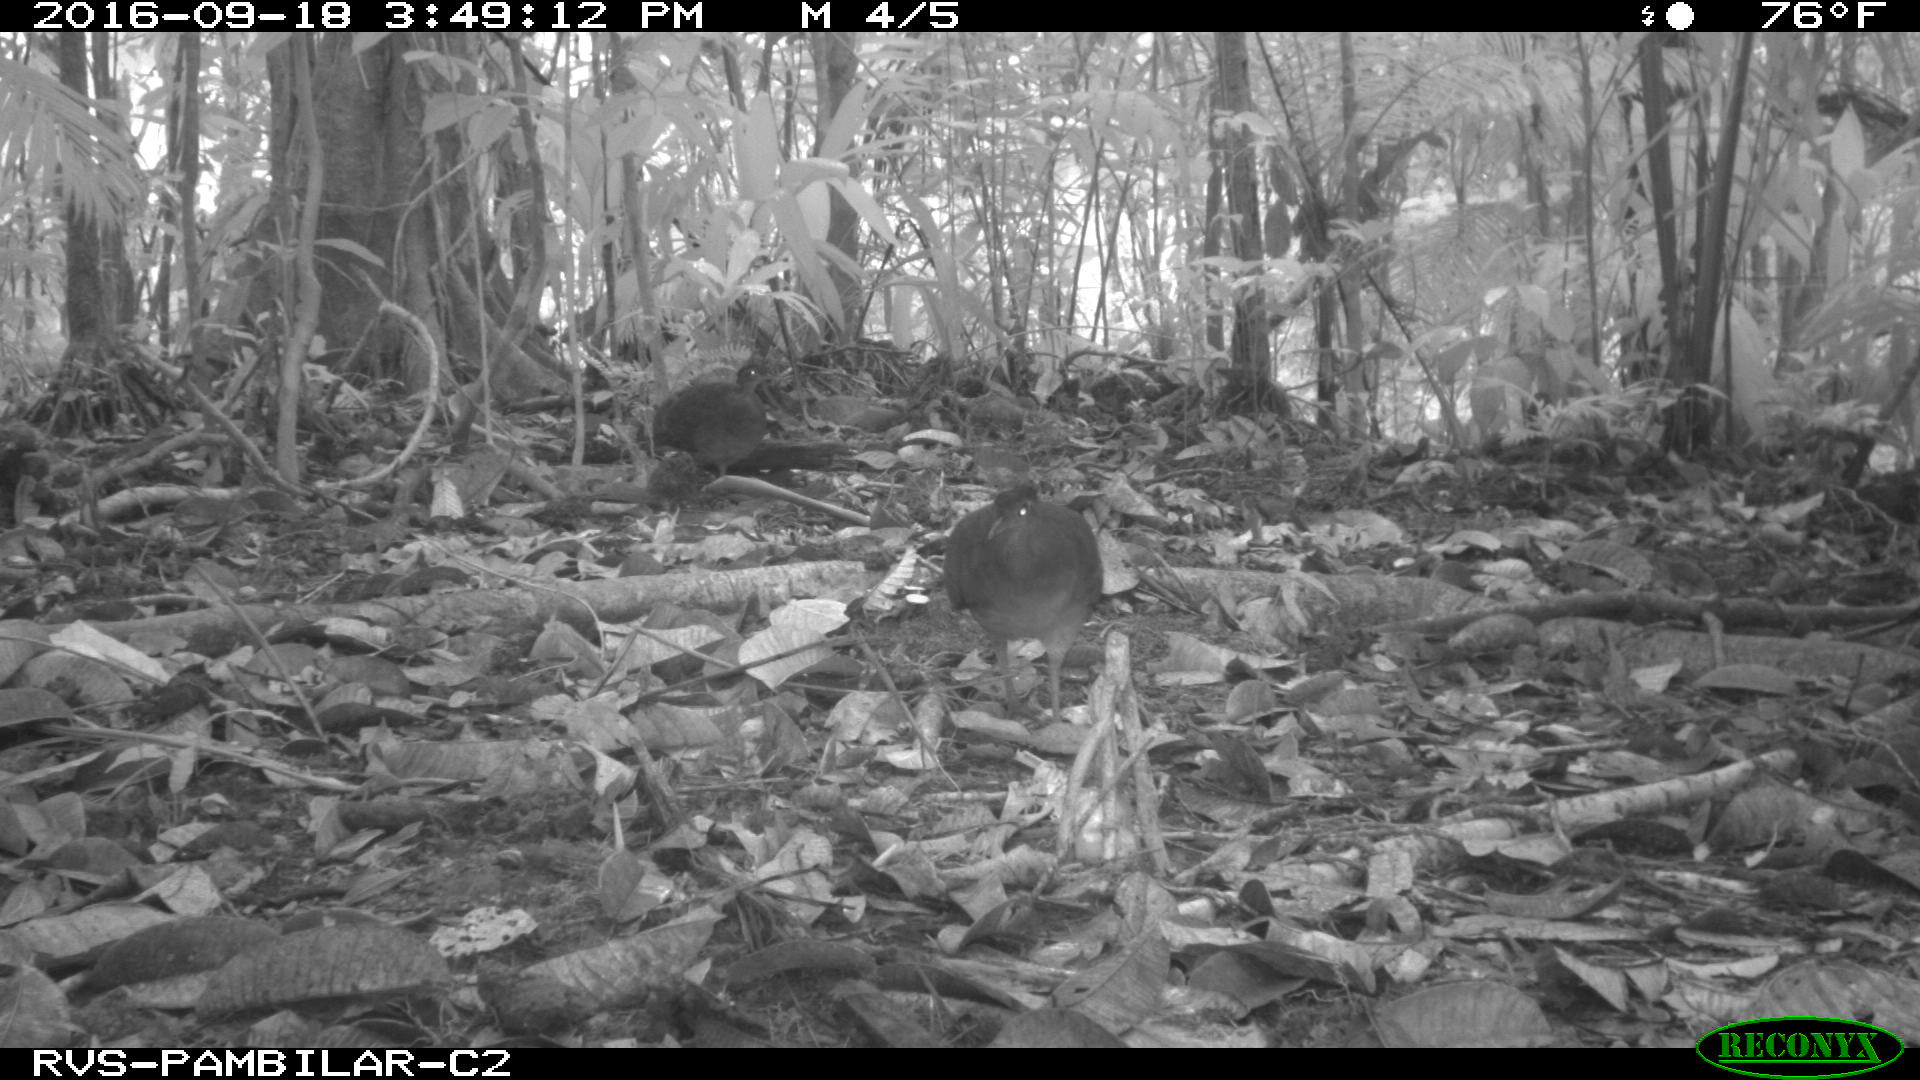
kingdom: Animalia
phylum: Chordata
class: Aves
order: Tinamiformes
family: Tinamidae
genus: Tinamus
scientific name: Tinamus major
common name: Great tinamou
